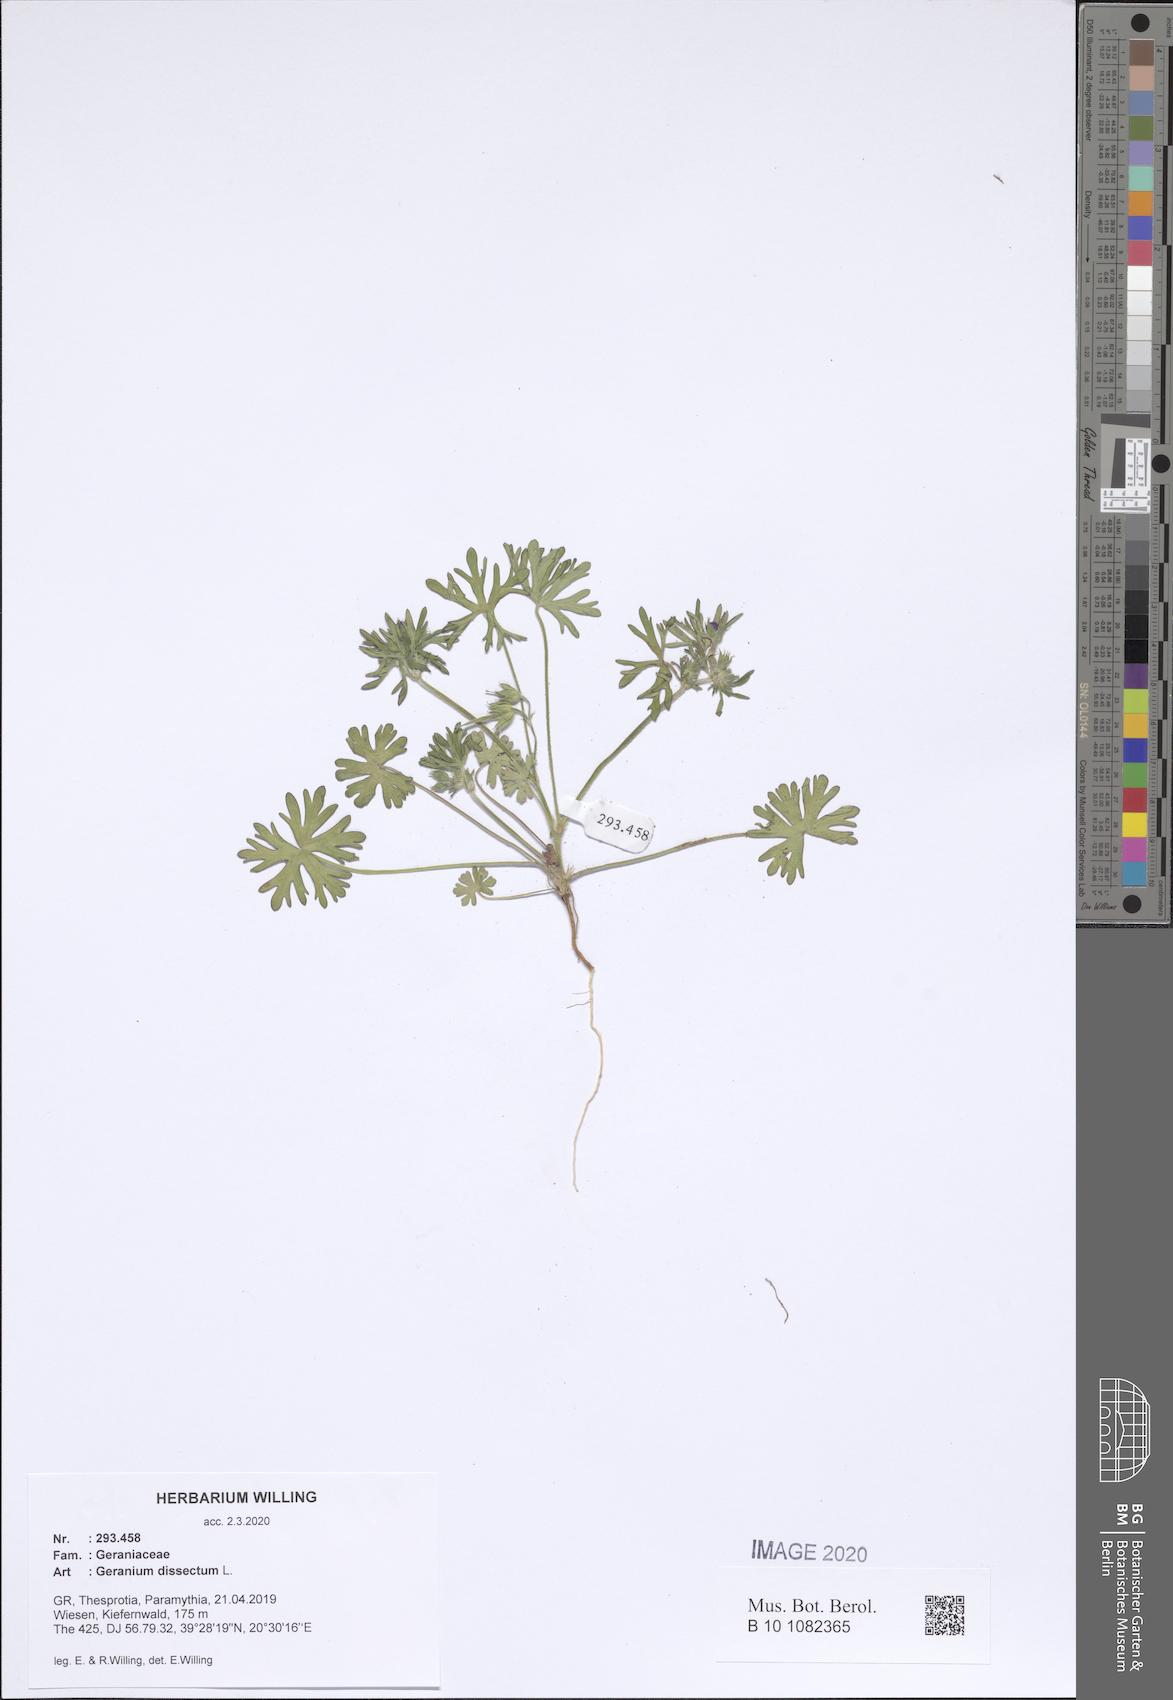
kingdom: Plantae
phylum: Tracheophyta
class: Magnoliopsida
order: Geraniales
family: Geraniaceae
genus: Geranium
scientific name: Geranium dissectum
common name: Cut-leaved crane's-bill
